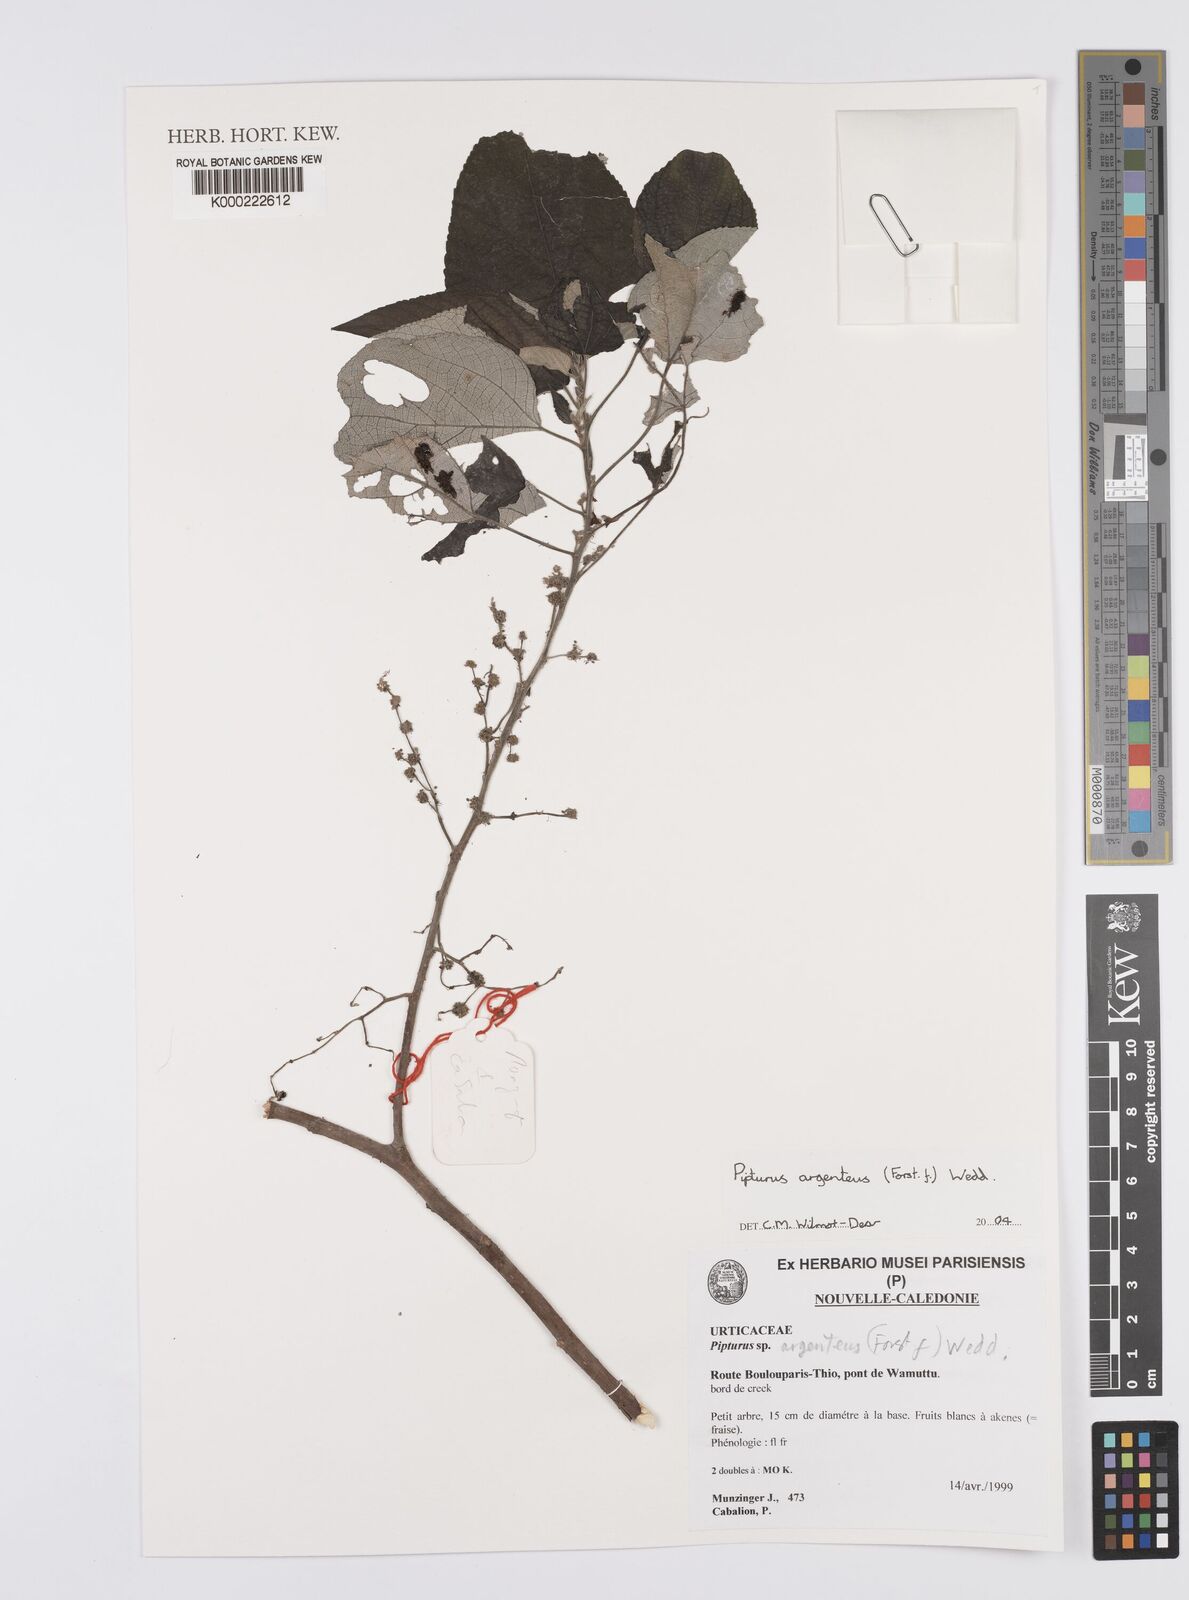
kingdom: Plantae
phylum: Tracheophyta
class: Magnoliopsida
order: Rosales
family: Urticaceae
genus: Pipturus
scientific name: Pipturus argenteus
